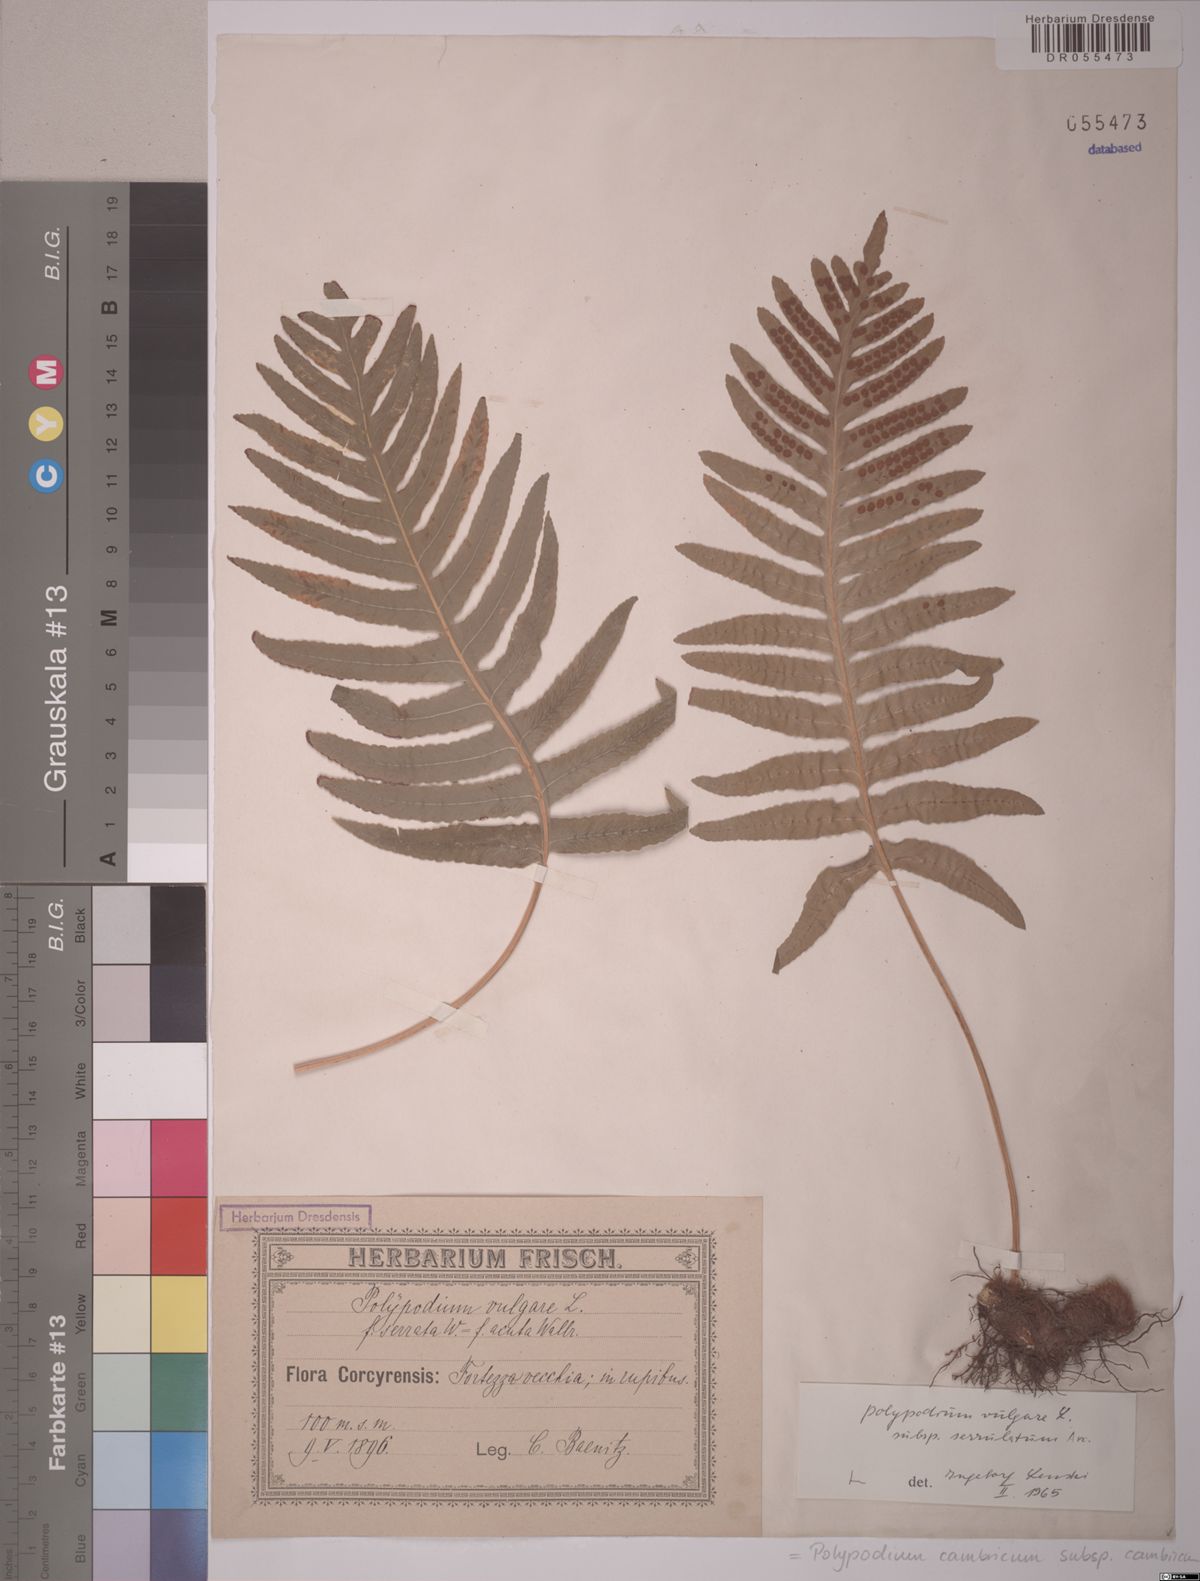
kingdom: Plantae
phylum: Tracheophyta
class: Polypodiopsida
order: Polypodiales
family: Polypodiaceae
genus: Polypodium
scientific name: Polypodium cambricum
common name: Southern polypody
